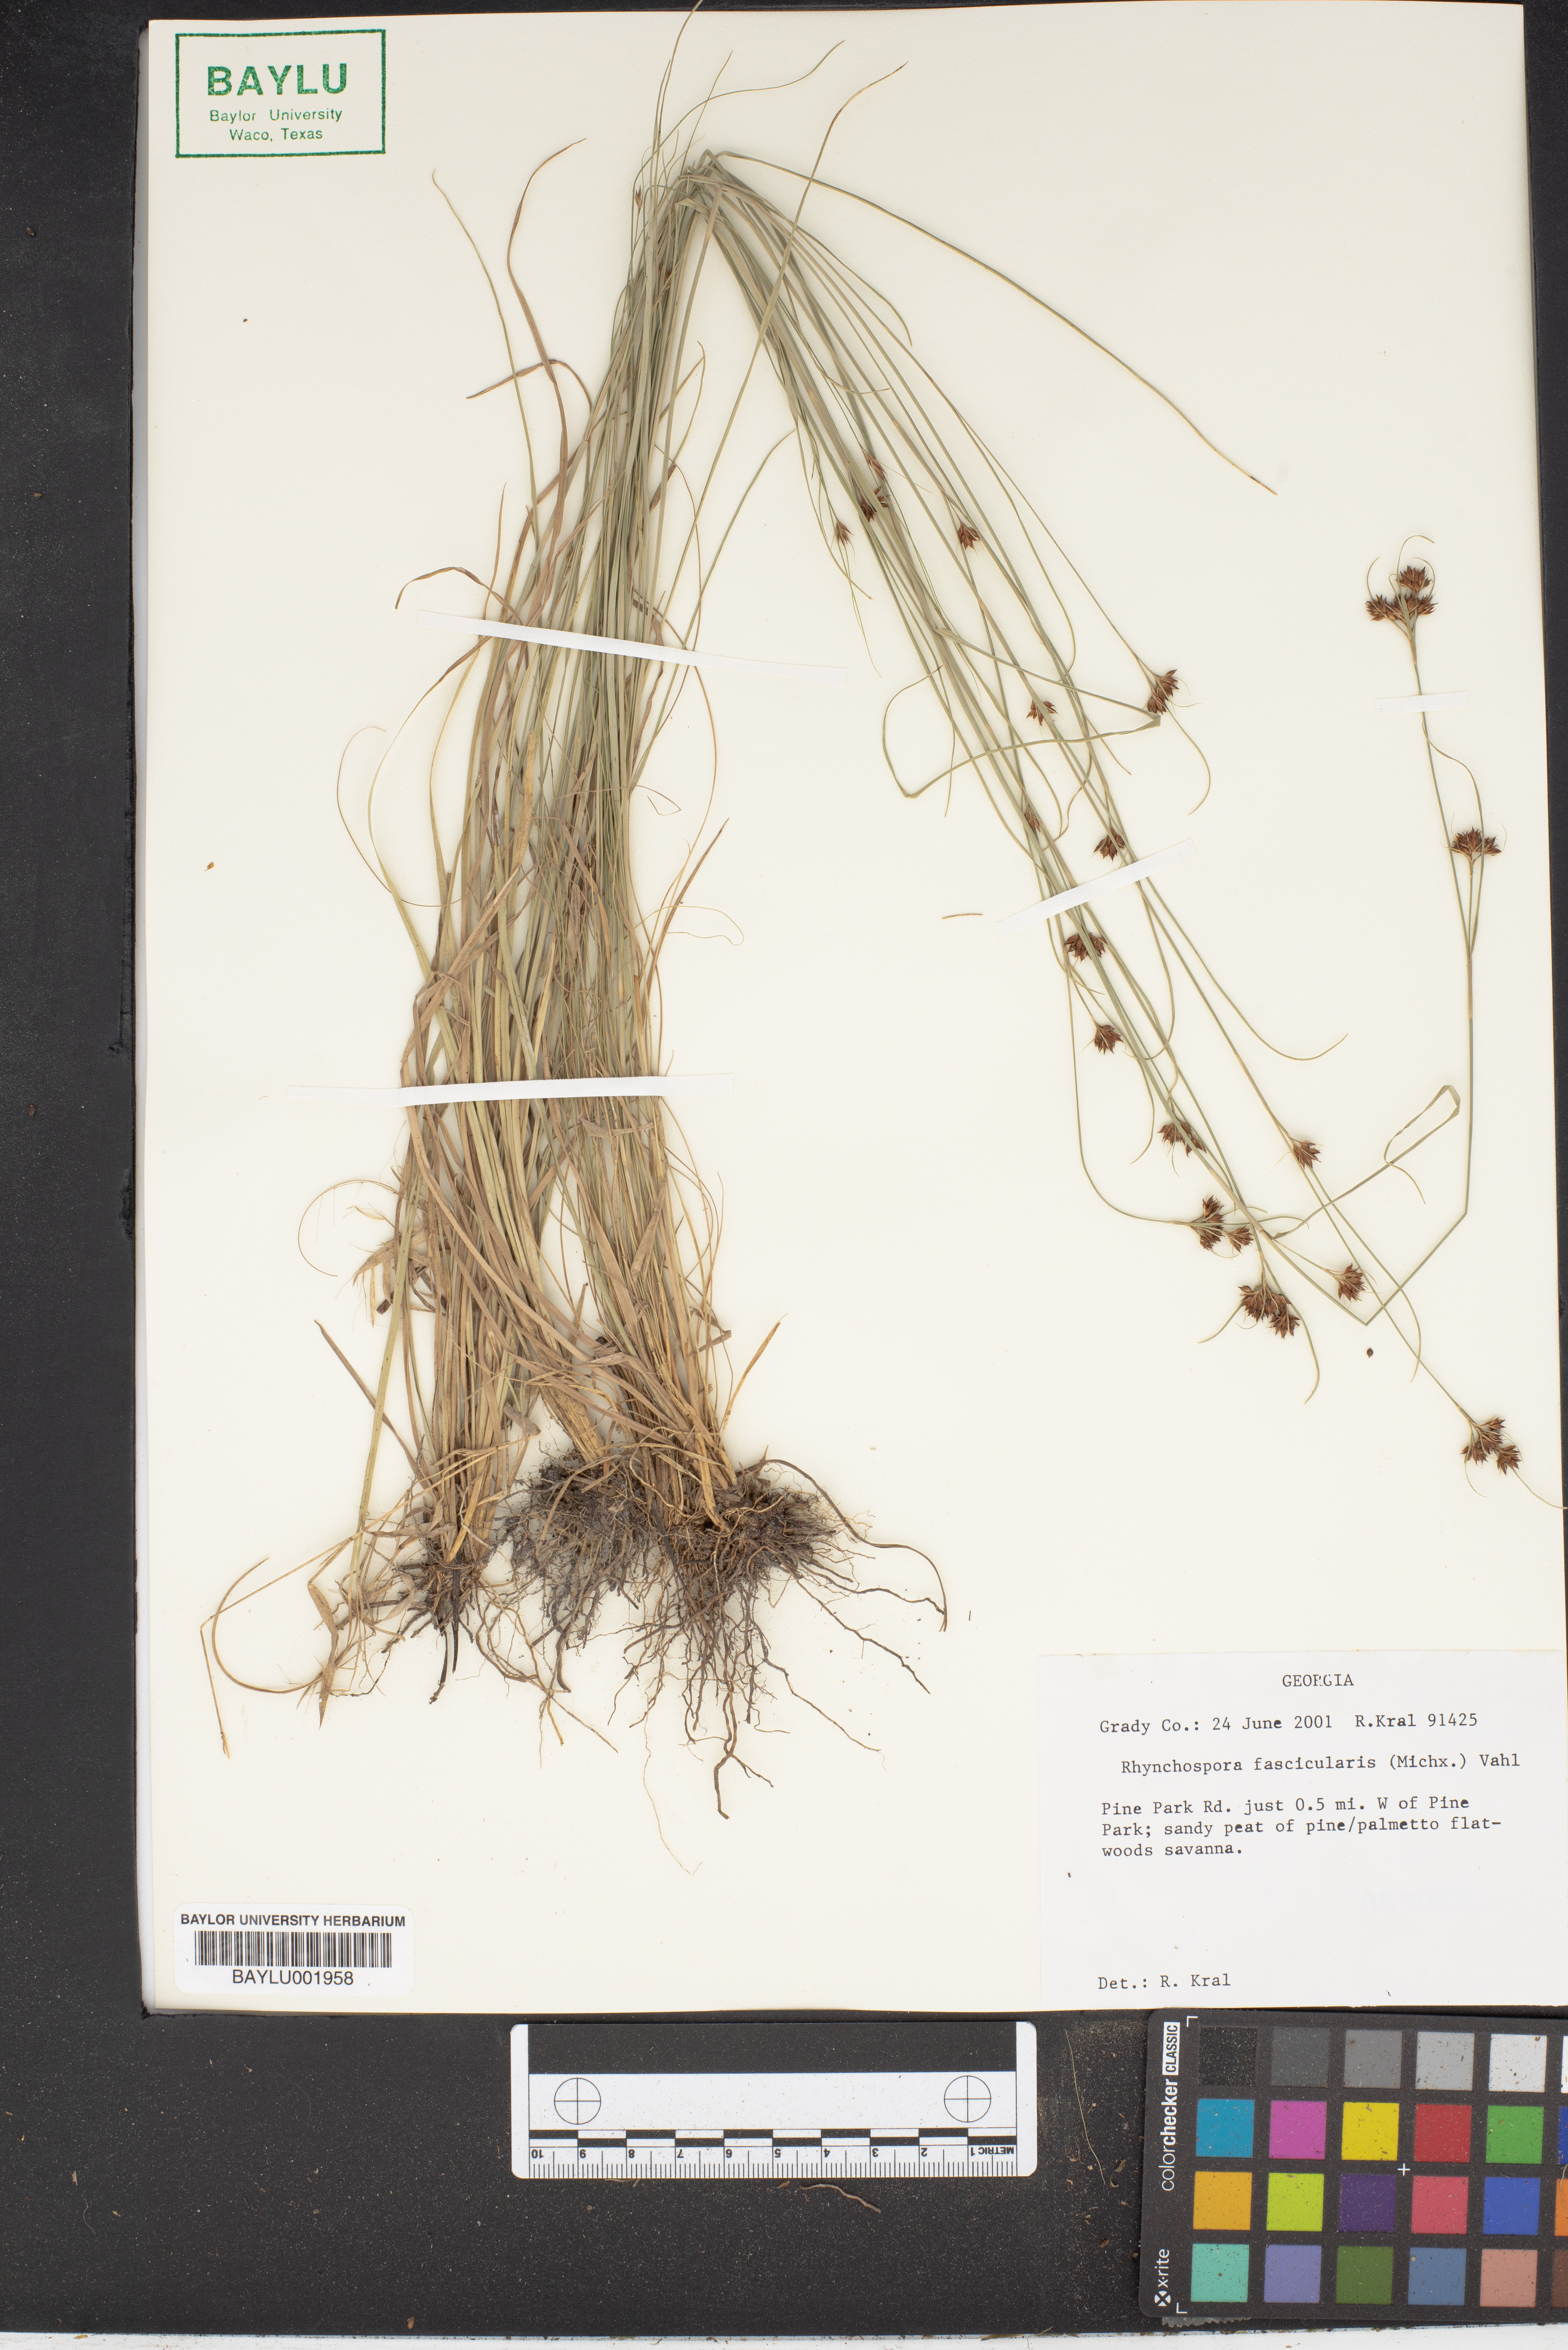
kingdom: Plantae
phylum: Tracheophyta
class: Liliopsida
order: Poales
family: Cyperaceae
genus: Rhynchospora
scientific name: Rhynchospora fascicularis
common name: Fascicled beak sedge
